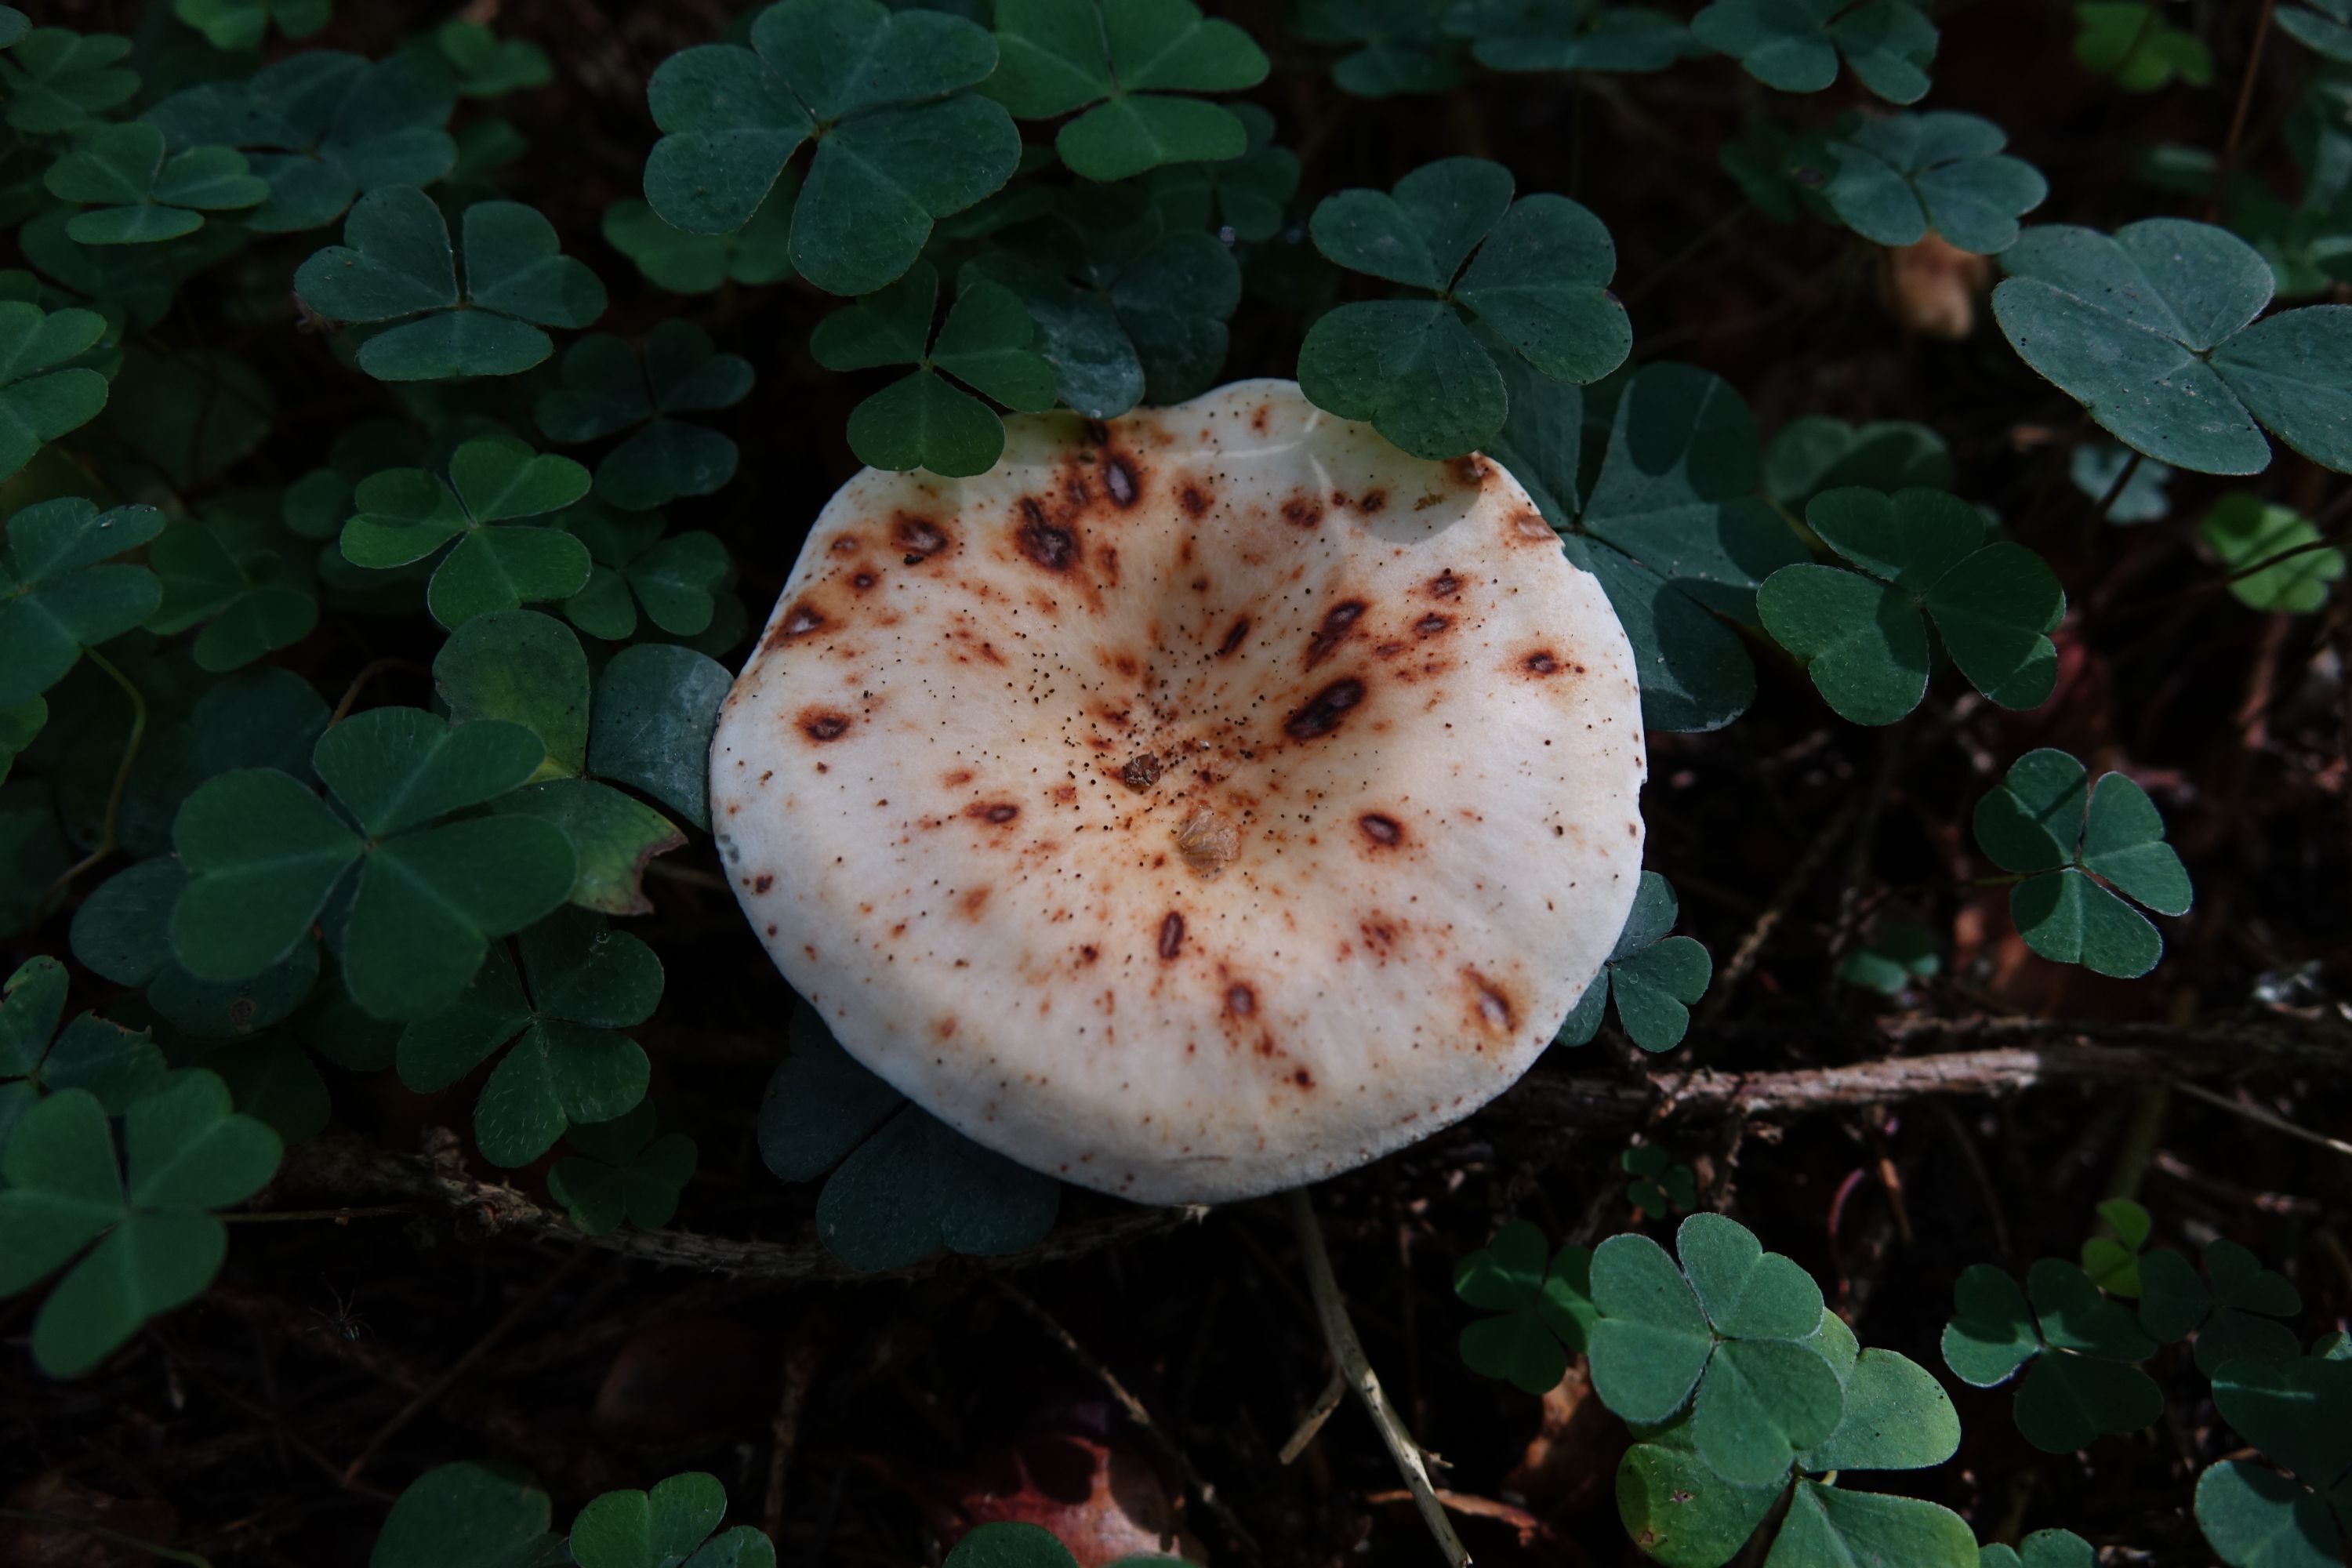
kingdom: Fungi
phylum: Basidiomycota
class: Agaricomycetes
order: Agaricales
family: Tricholomataceae
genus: Paralepista
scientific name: Paralepista gilva
